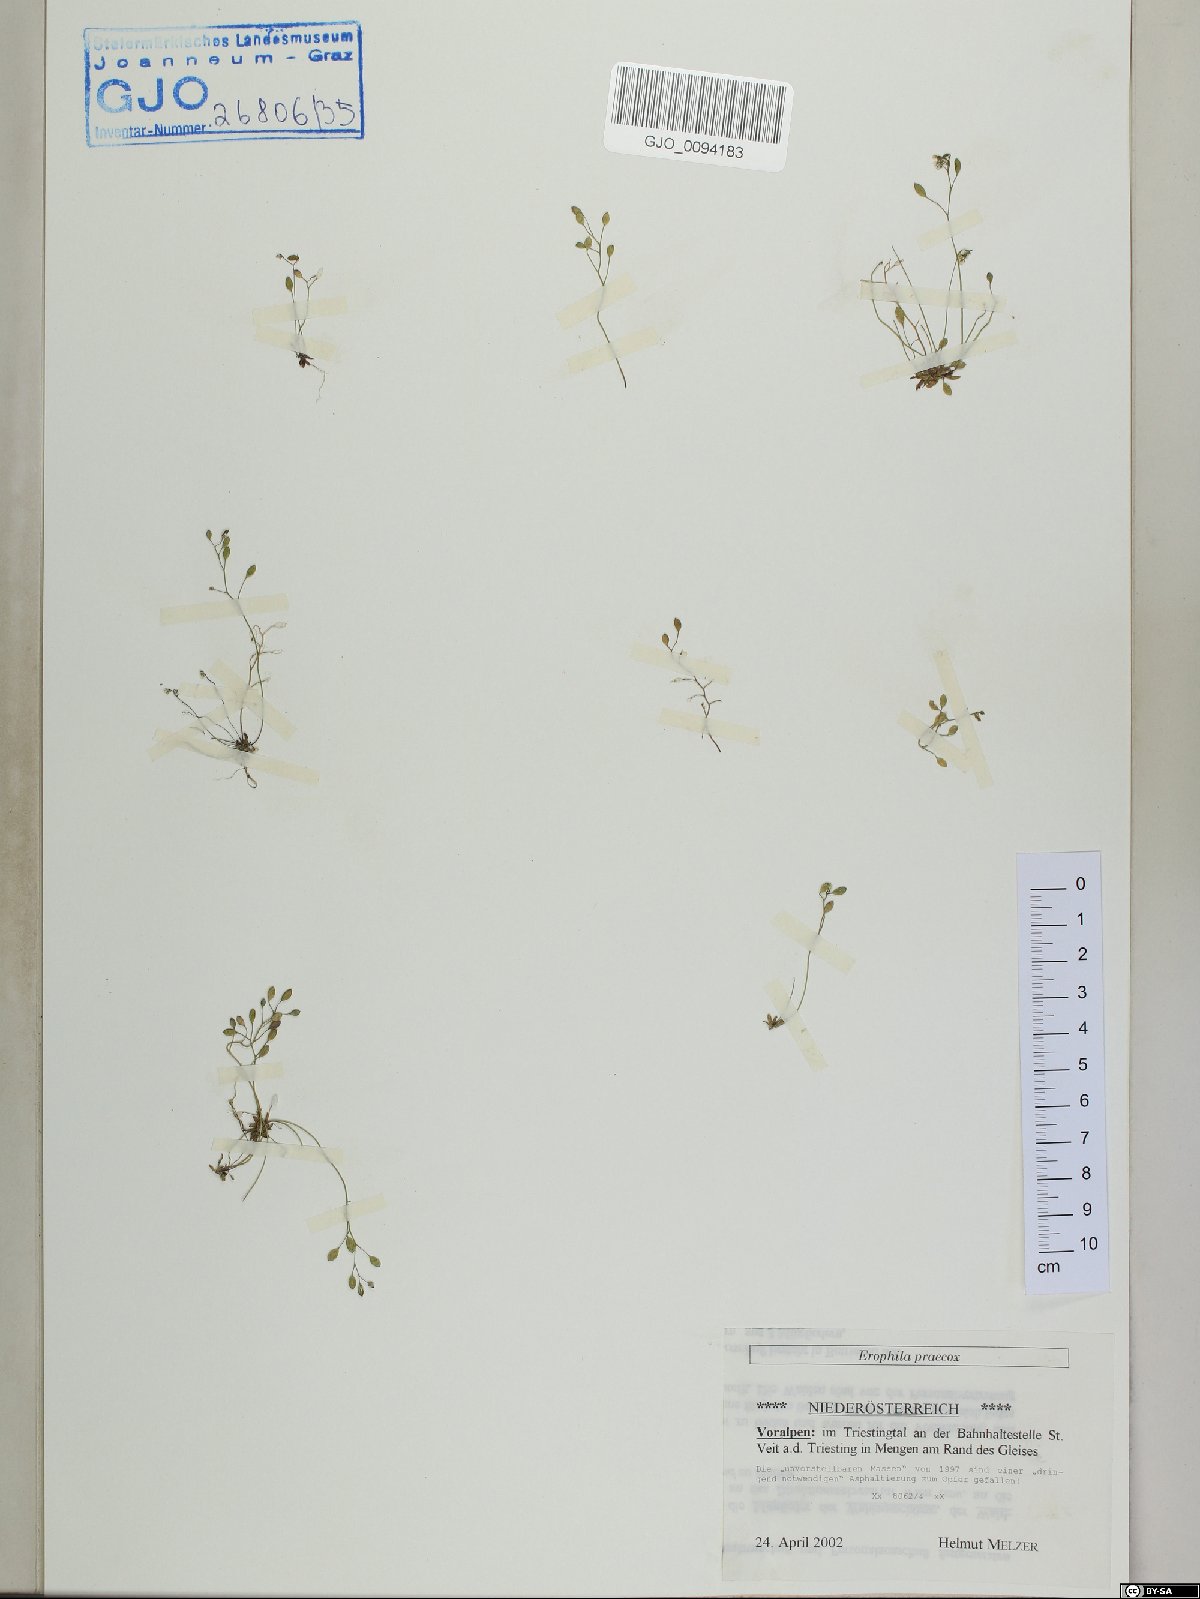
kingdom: Plantae
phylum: Tracheophyta
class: Magnoliopsida
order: Brassicales
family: Brassicaceae
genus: Draba
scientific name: Draba verna
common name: Spring draba
